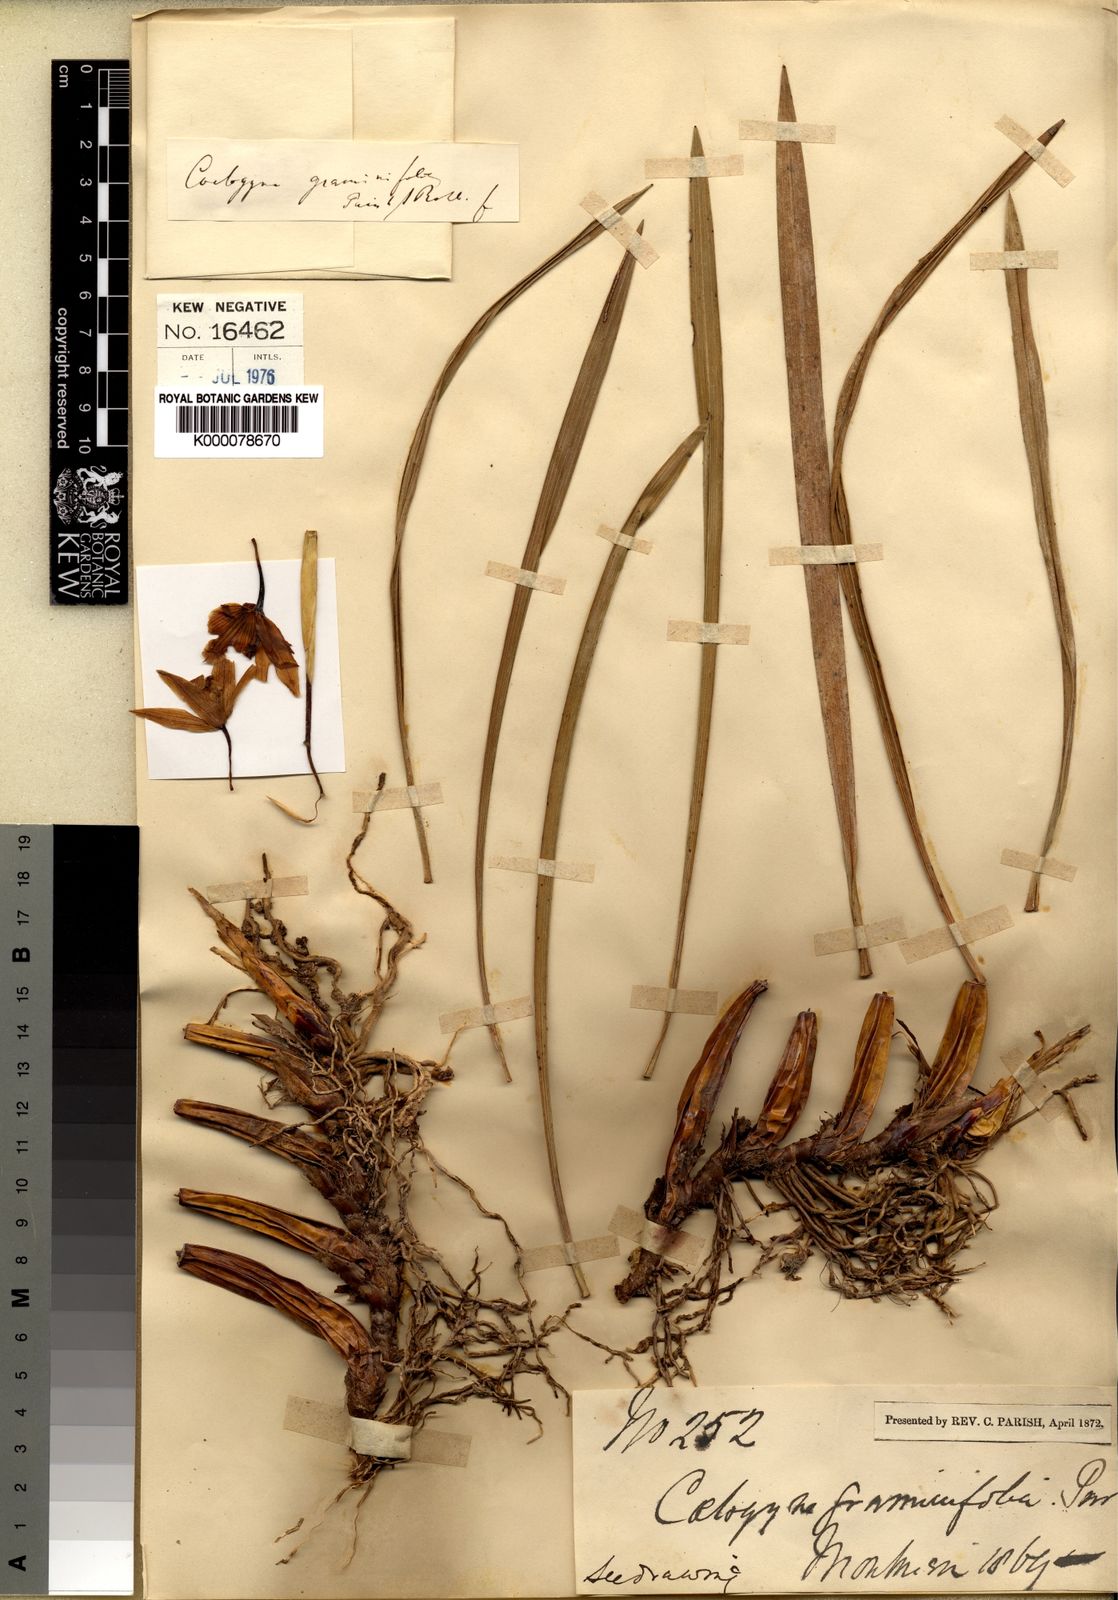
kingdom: Plantae
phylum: Tracheophyta
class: Liliopsida
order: Asparagales
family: Orchidaceae
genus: Coelogyne
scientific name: Coelogyne viscosa
